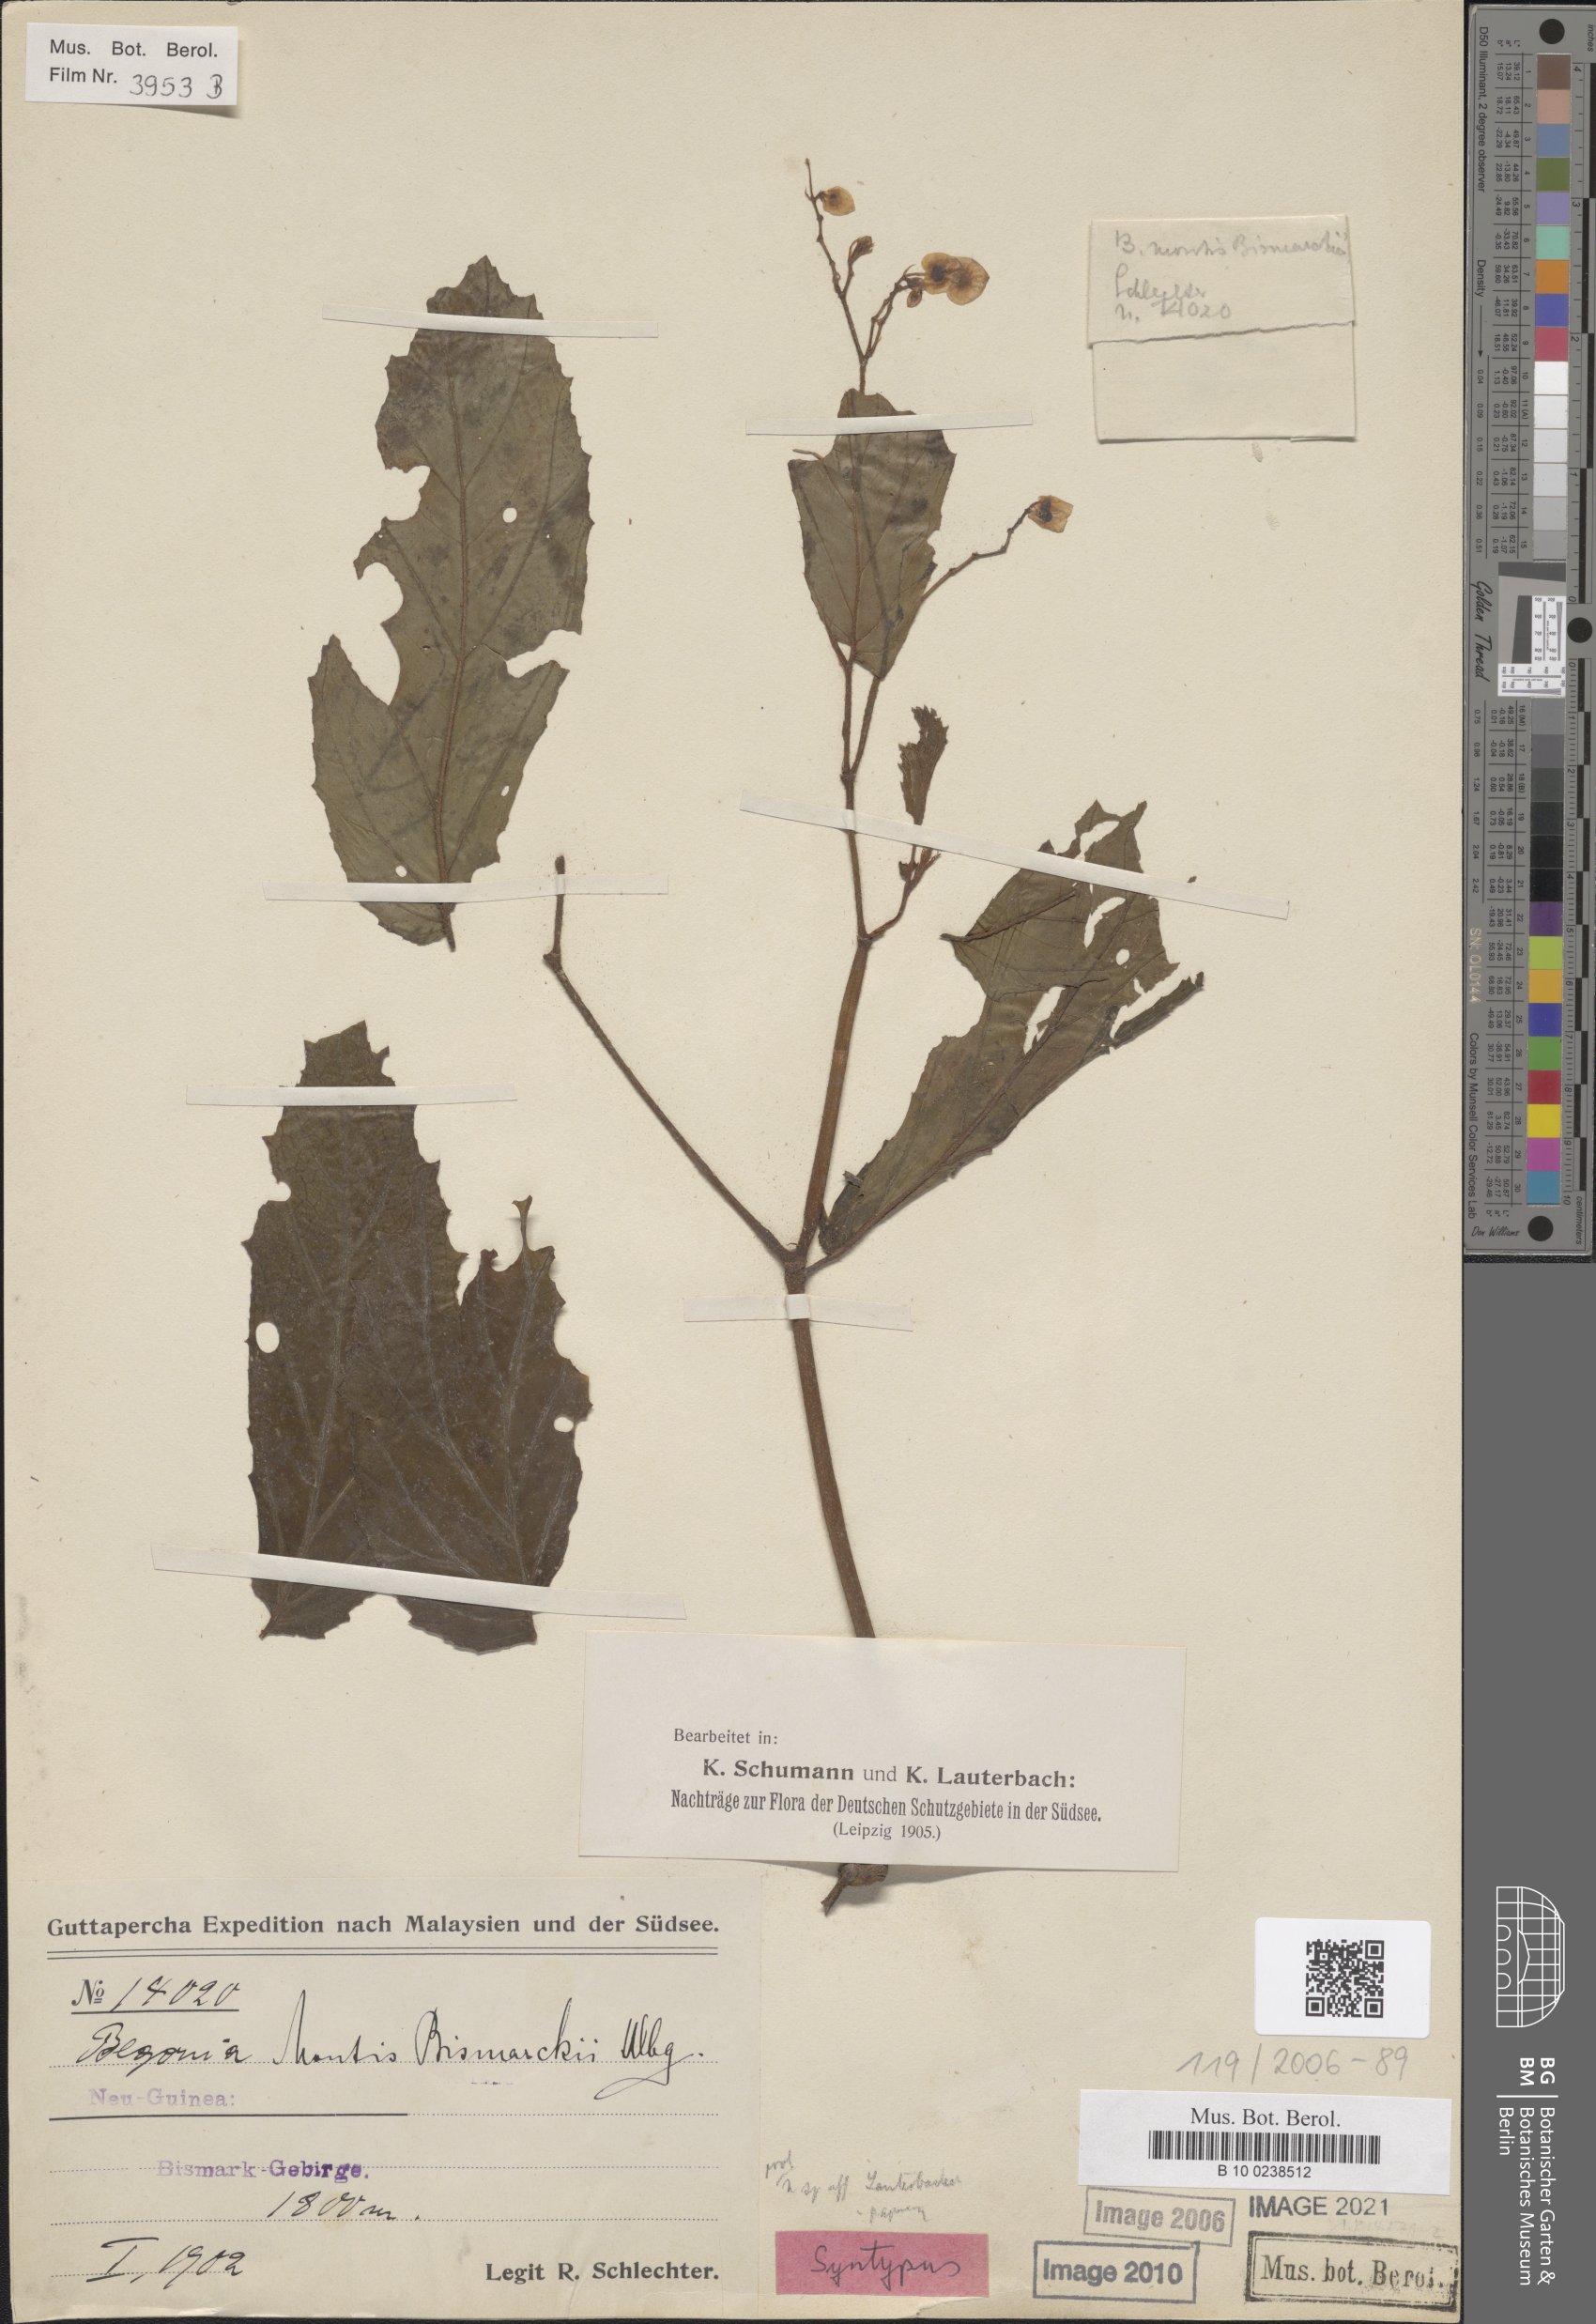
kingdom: Plantae
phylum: Tracheophyta
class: Magnoliopsida
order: Cucurbitales
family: Begoniaceae
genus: Begonia
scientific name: Begonia montis-bismarckii
